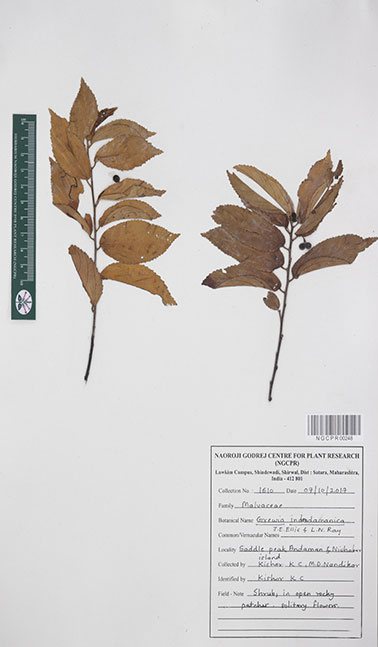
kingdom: Plantae
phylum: Tracheophyta
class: Magnoliopsida
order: Malvales
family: Malvaceae
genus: Grewia
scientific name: Grewia indandamanica
